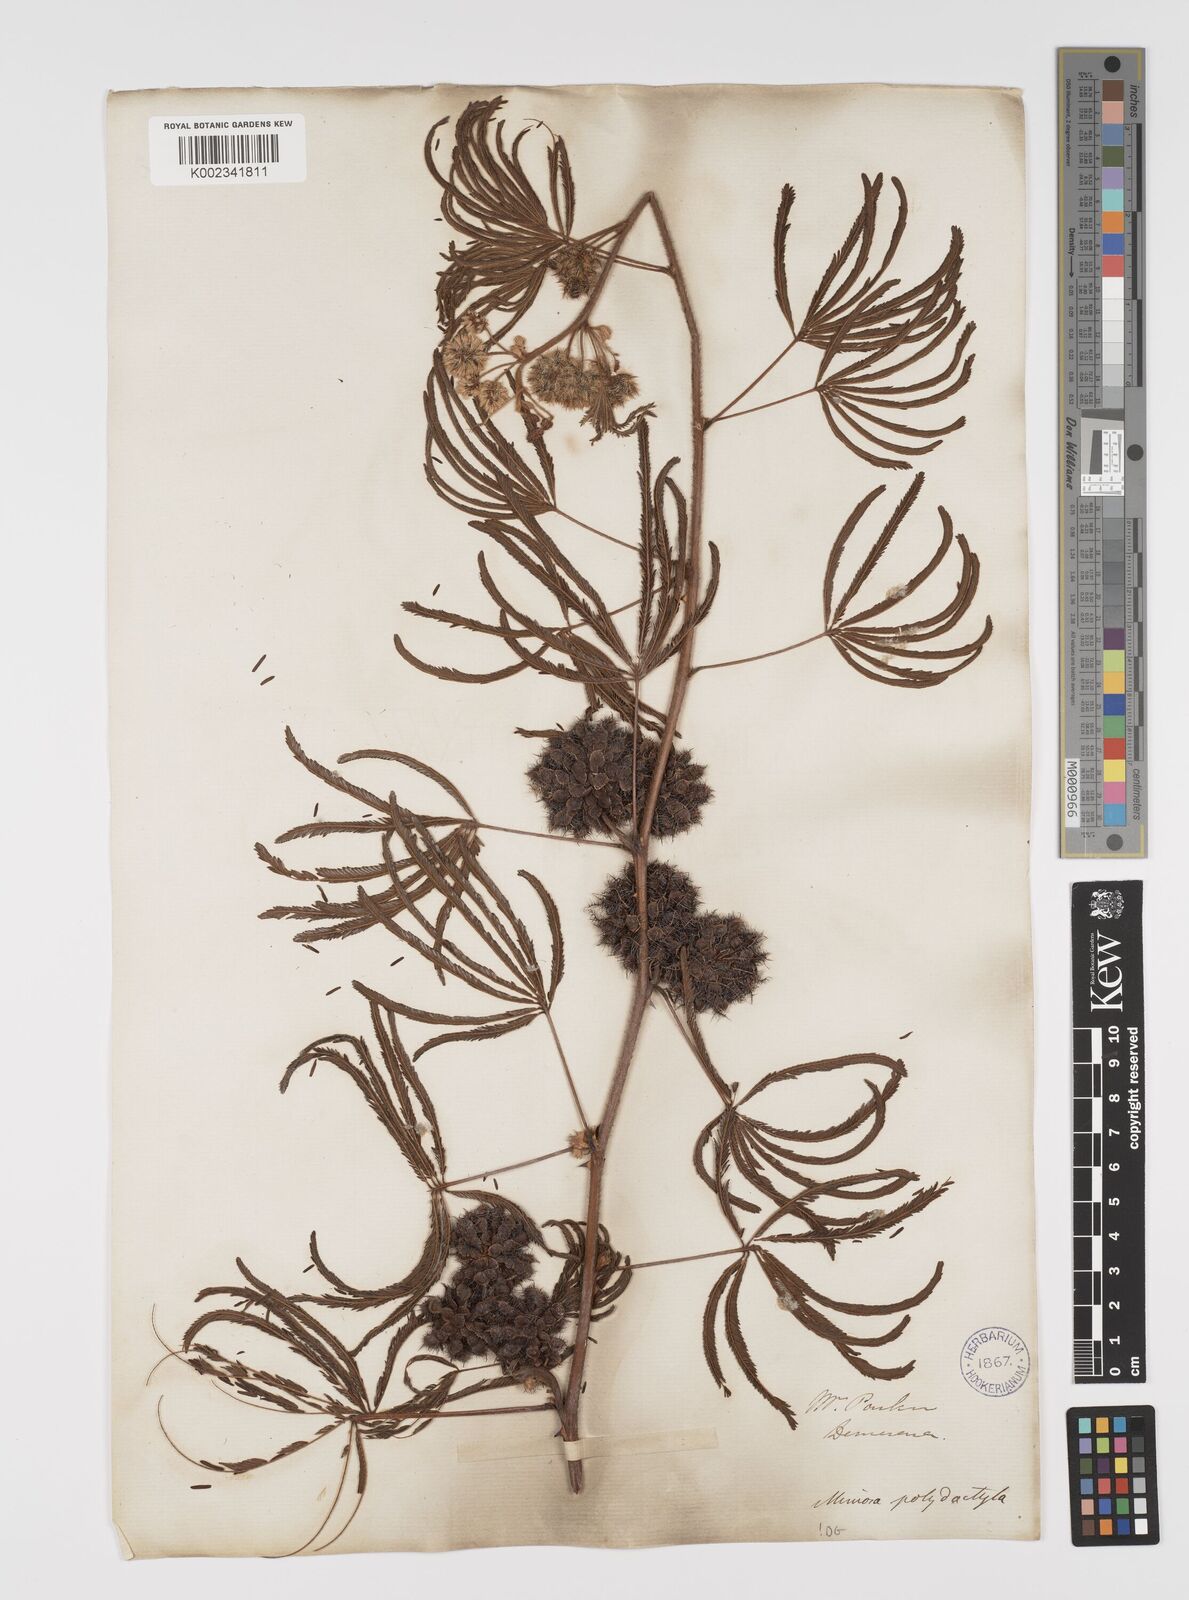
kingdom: Plantae
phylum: Tracheophyta
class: Magnoliopsida
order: Fabales
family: Fabaceae
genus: Mimosa
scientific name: Mimosa polydactyla
